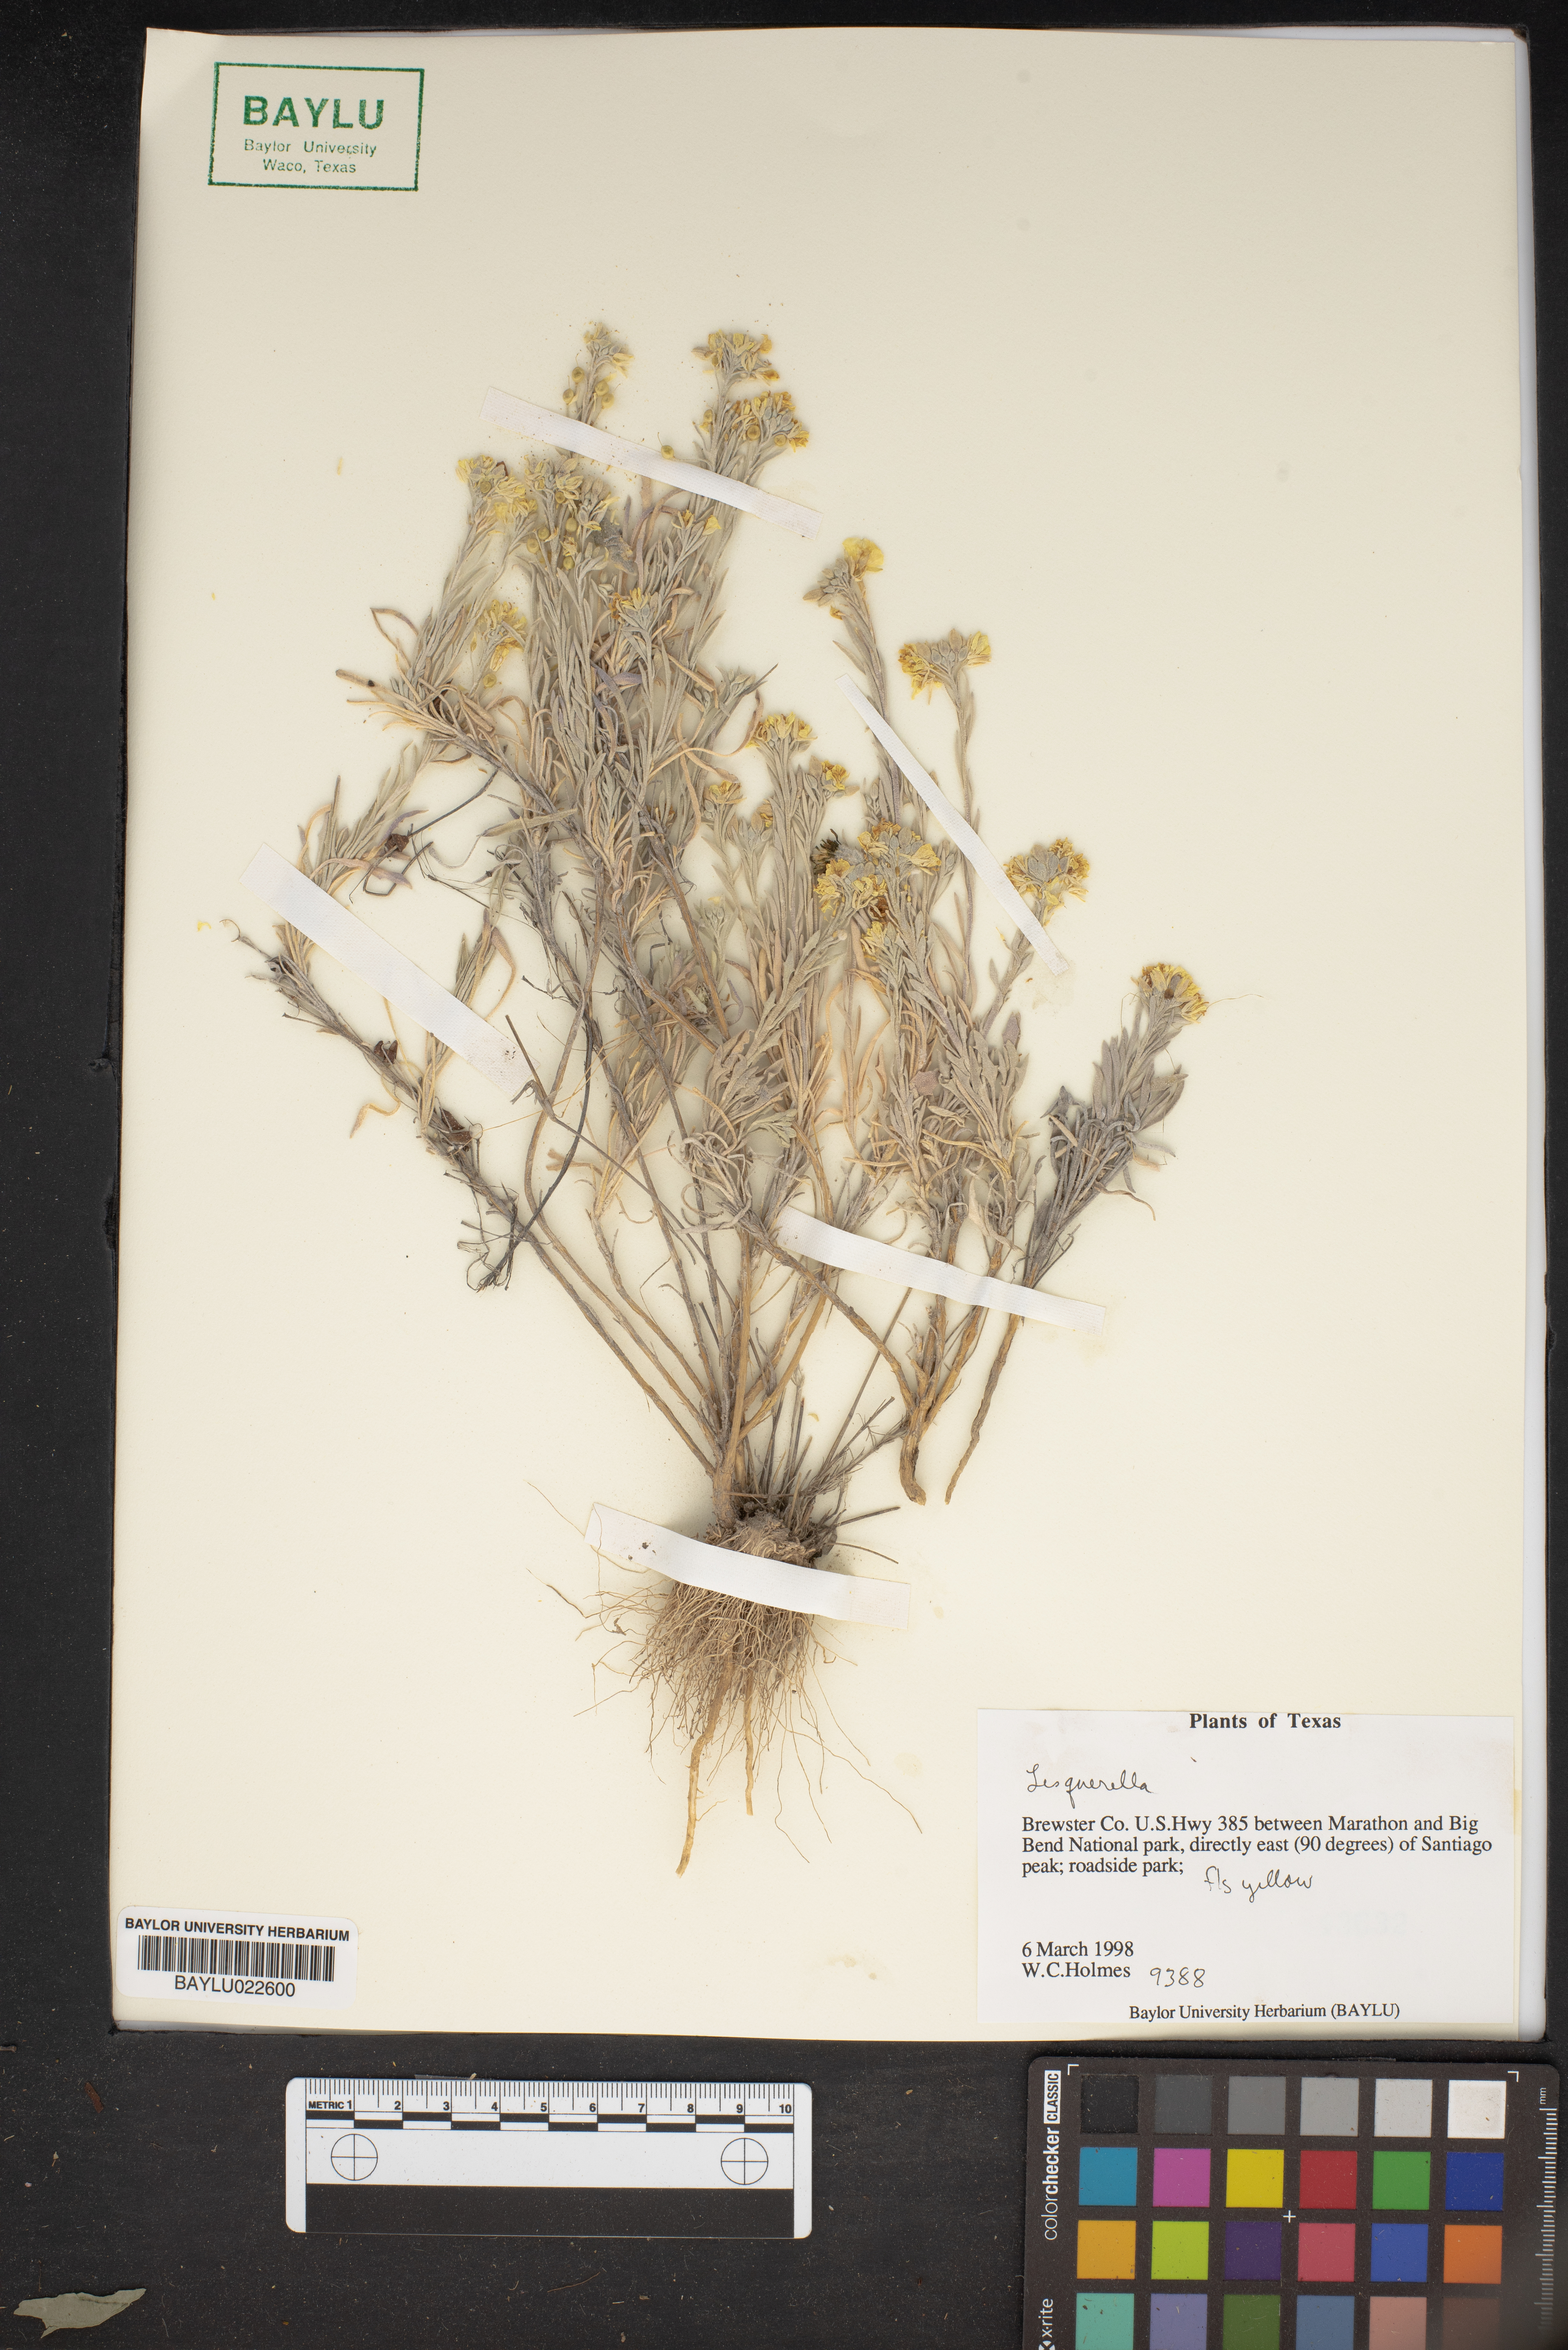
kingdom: Chromista
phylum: Cercozoa
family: Psammonobiotidae
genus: Lesquerella
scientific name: Lesquerella
